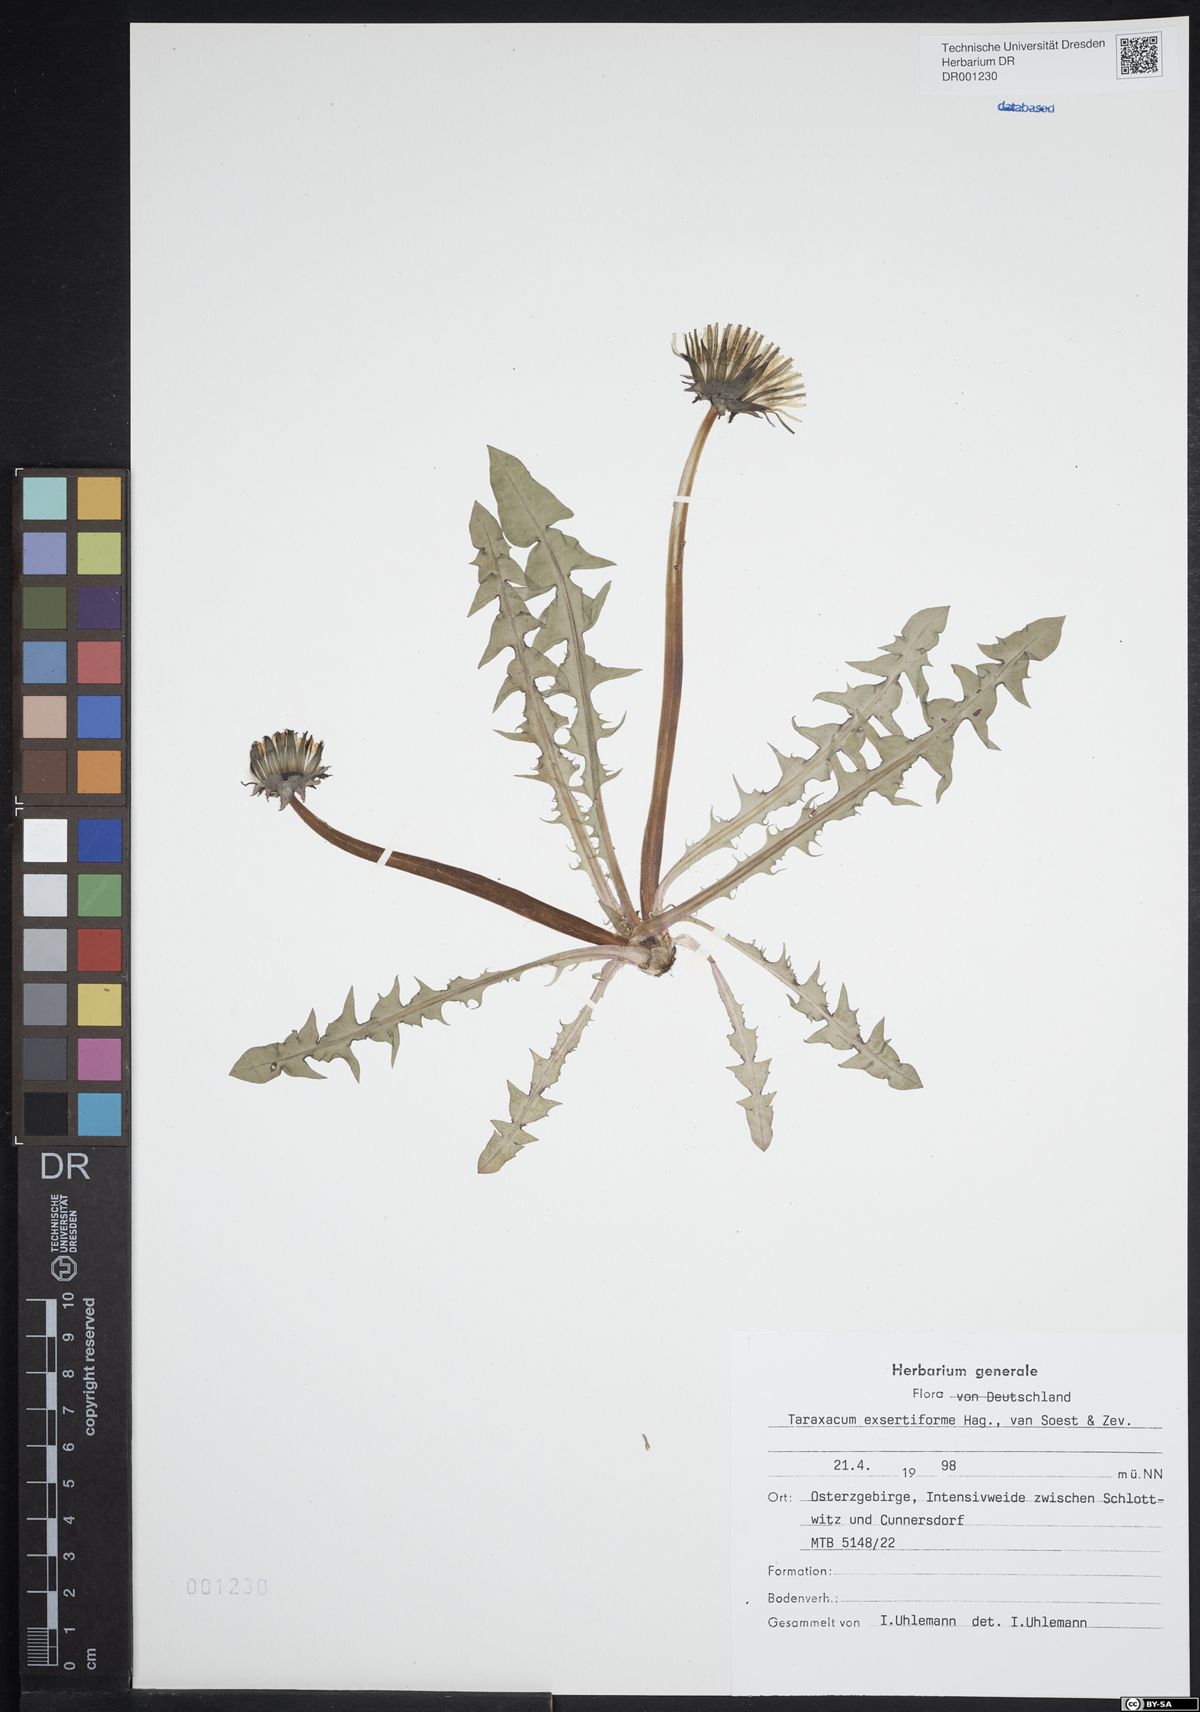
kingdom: Plantae
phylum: Tracheophyta
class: Magnoliopsida
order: Asterales
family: Asteraceae
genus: Taraxacum
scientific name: Taraxacum exsertiforme
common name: Erect-bracted dandelion
